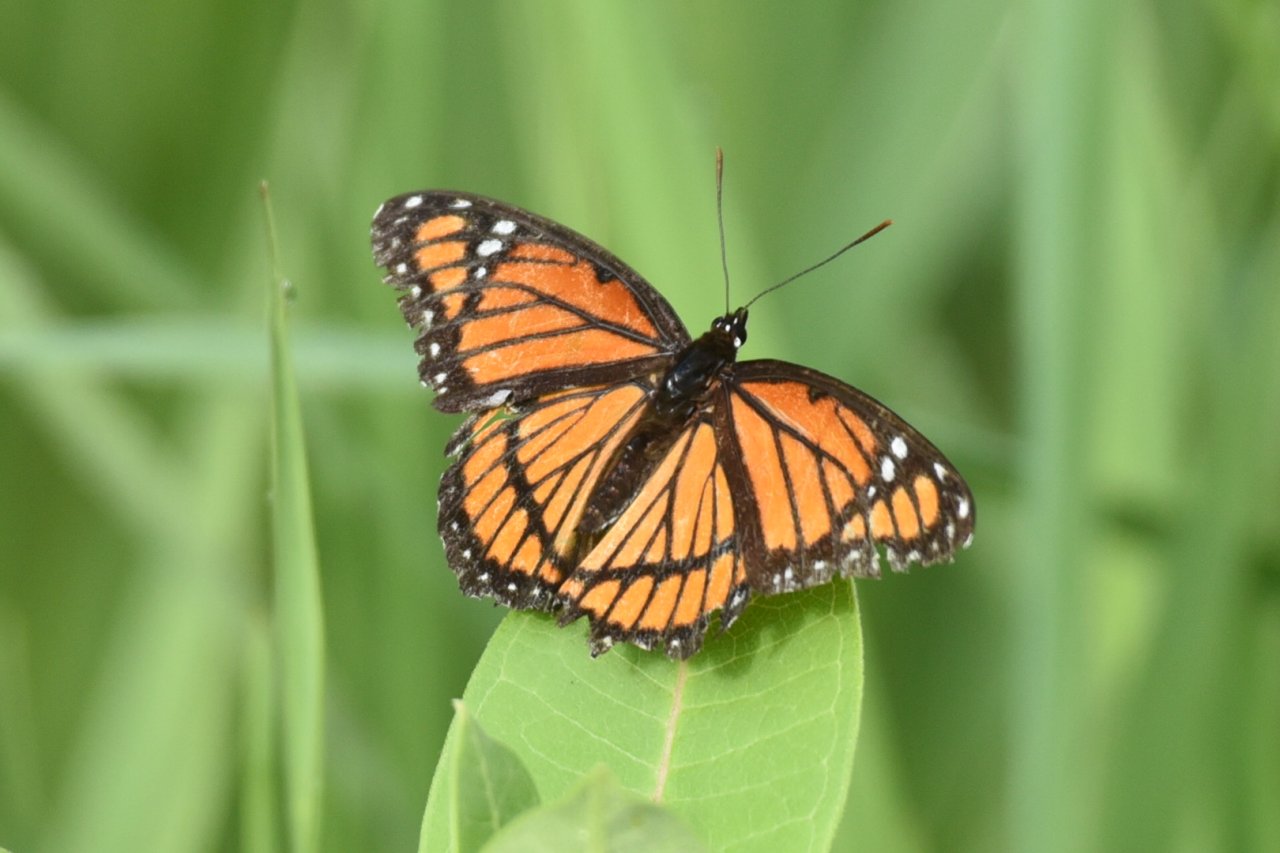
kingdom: Animalia
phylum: Arthropoda
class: Insecta
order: Lepidoptera
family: Nymphalidae
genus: Limenitis
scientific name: Limenitis archippus
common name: Viceroy
